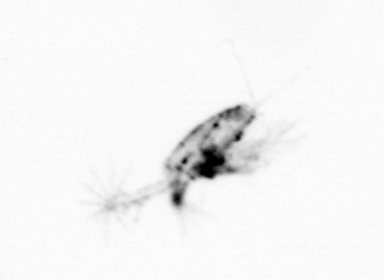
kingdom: Animalia
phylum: Arthropoda
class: Copepoda
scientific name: Copepoda
